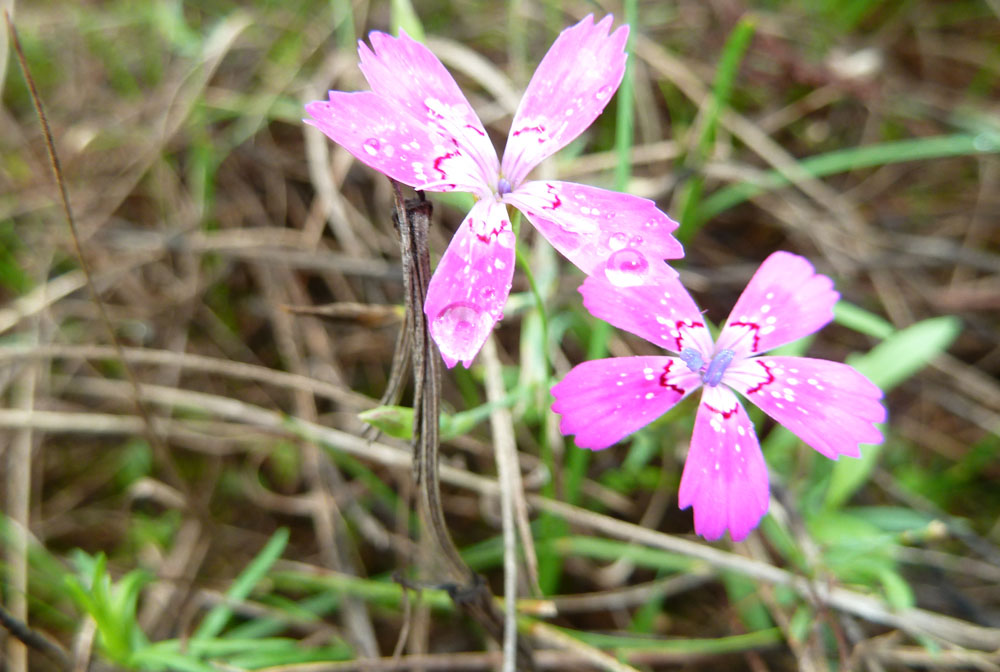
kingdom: Plantae
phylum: Tracheophyta
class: Magnoliopsida
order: Caryophyllales
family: Caryophyllaceae
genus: Dianthus
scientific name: Dianthus deltoides
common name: Maiden pink
